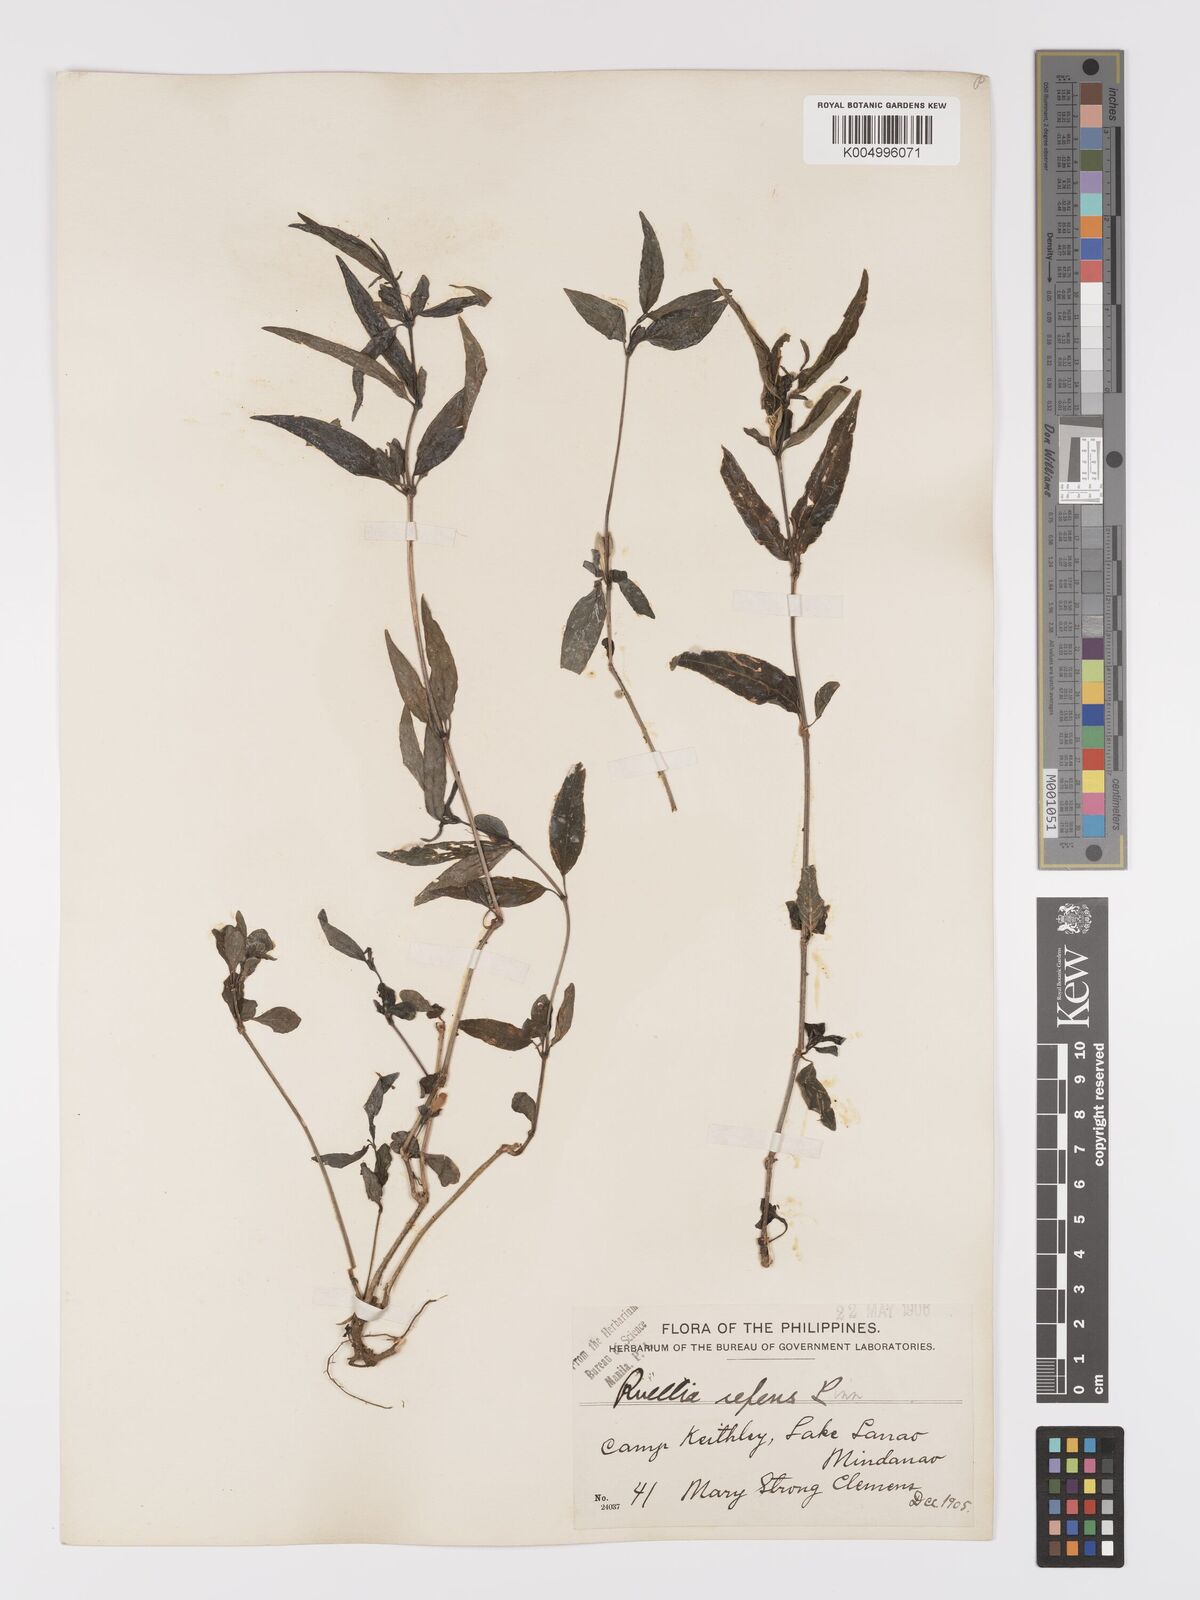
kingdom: Plantae
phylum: Tracheophyta
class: Magnoliopsida
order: Lamiales
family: Acanthaceae
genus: Ruellia
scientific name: Ruellia
